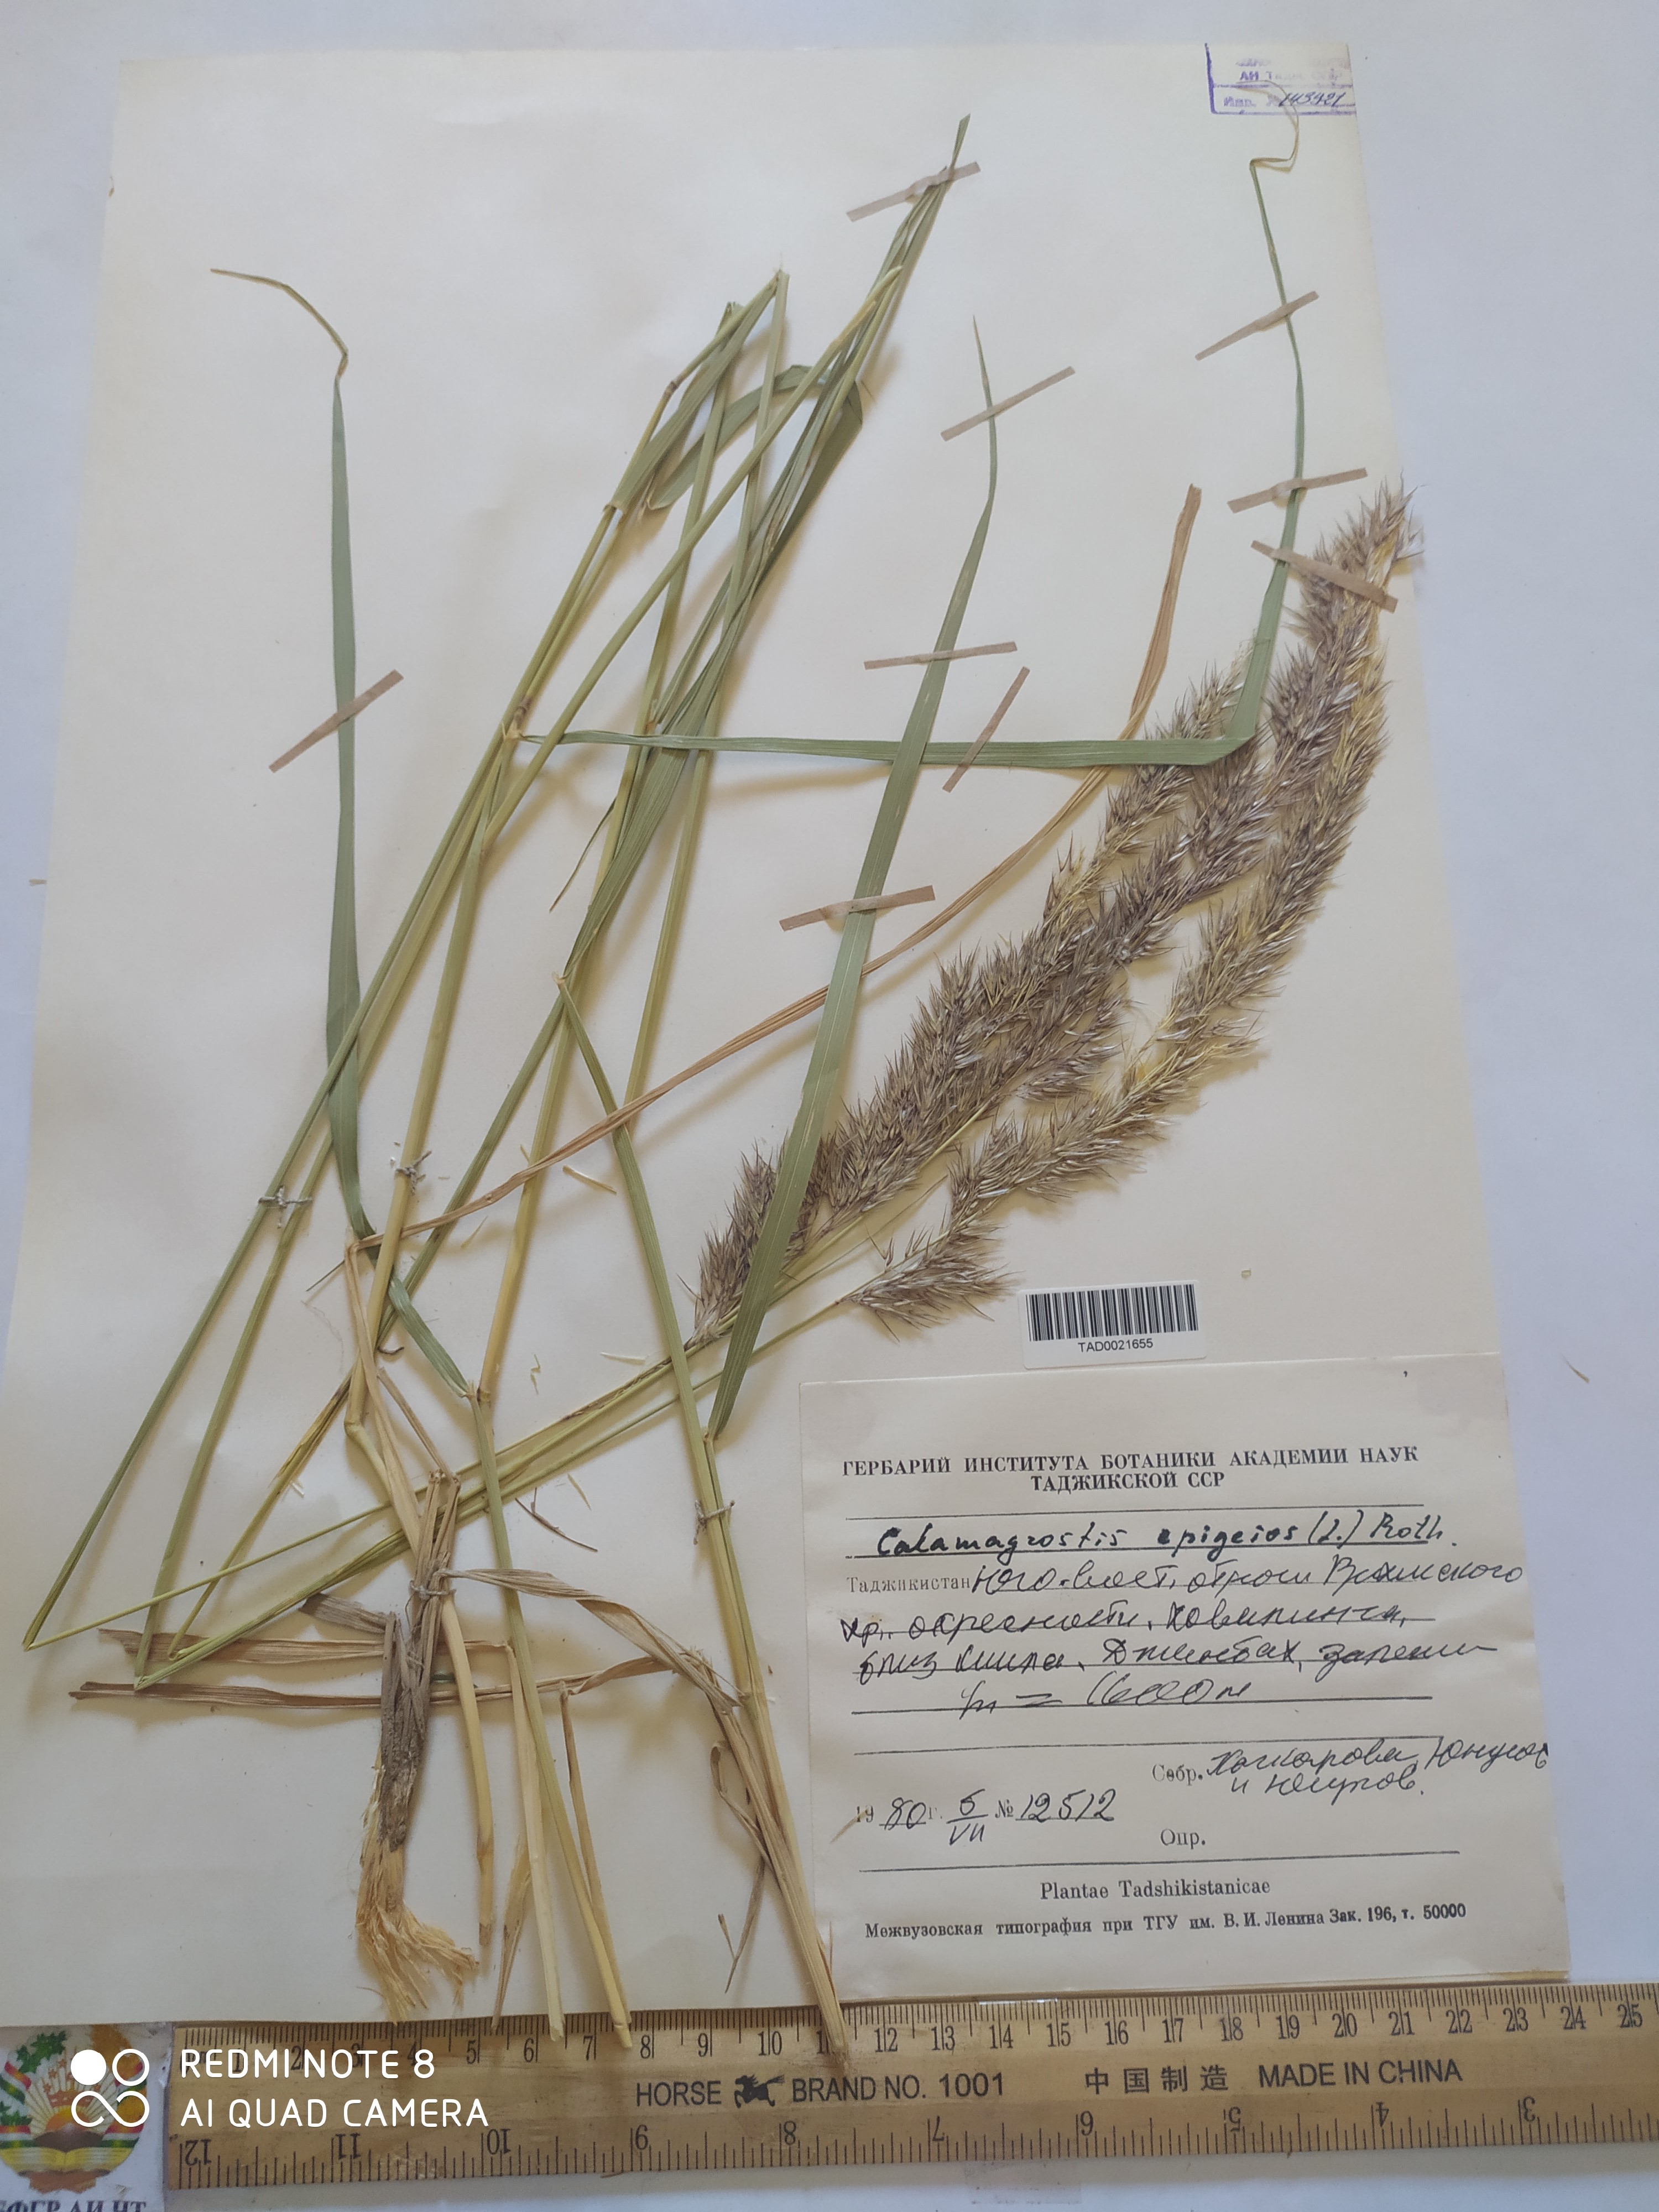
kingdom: Plantae
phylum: Tracheophyta
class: Liliopsida
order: Poales
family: Poaceae
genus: Calamagrostis
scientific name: Calamagrostis epigejos
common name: Wood small-reed
